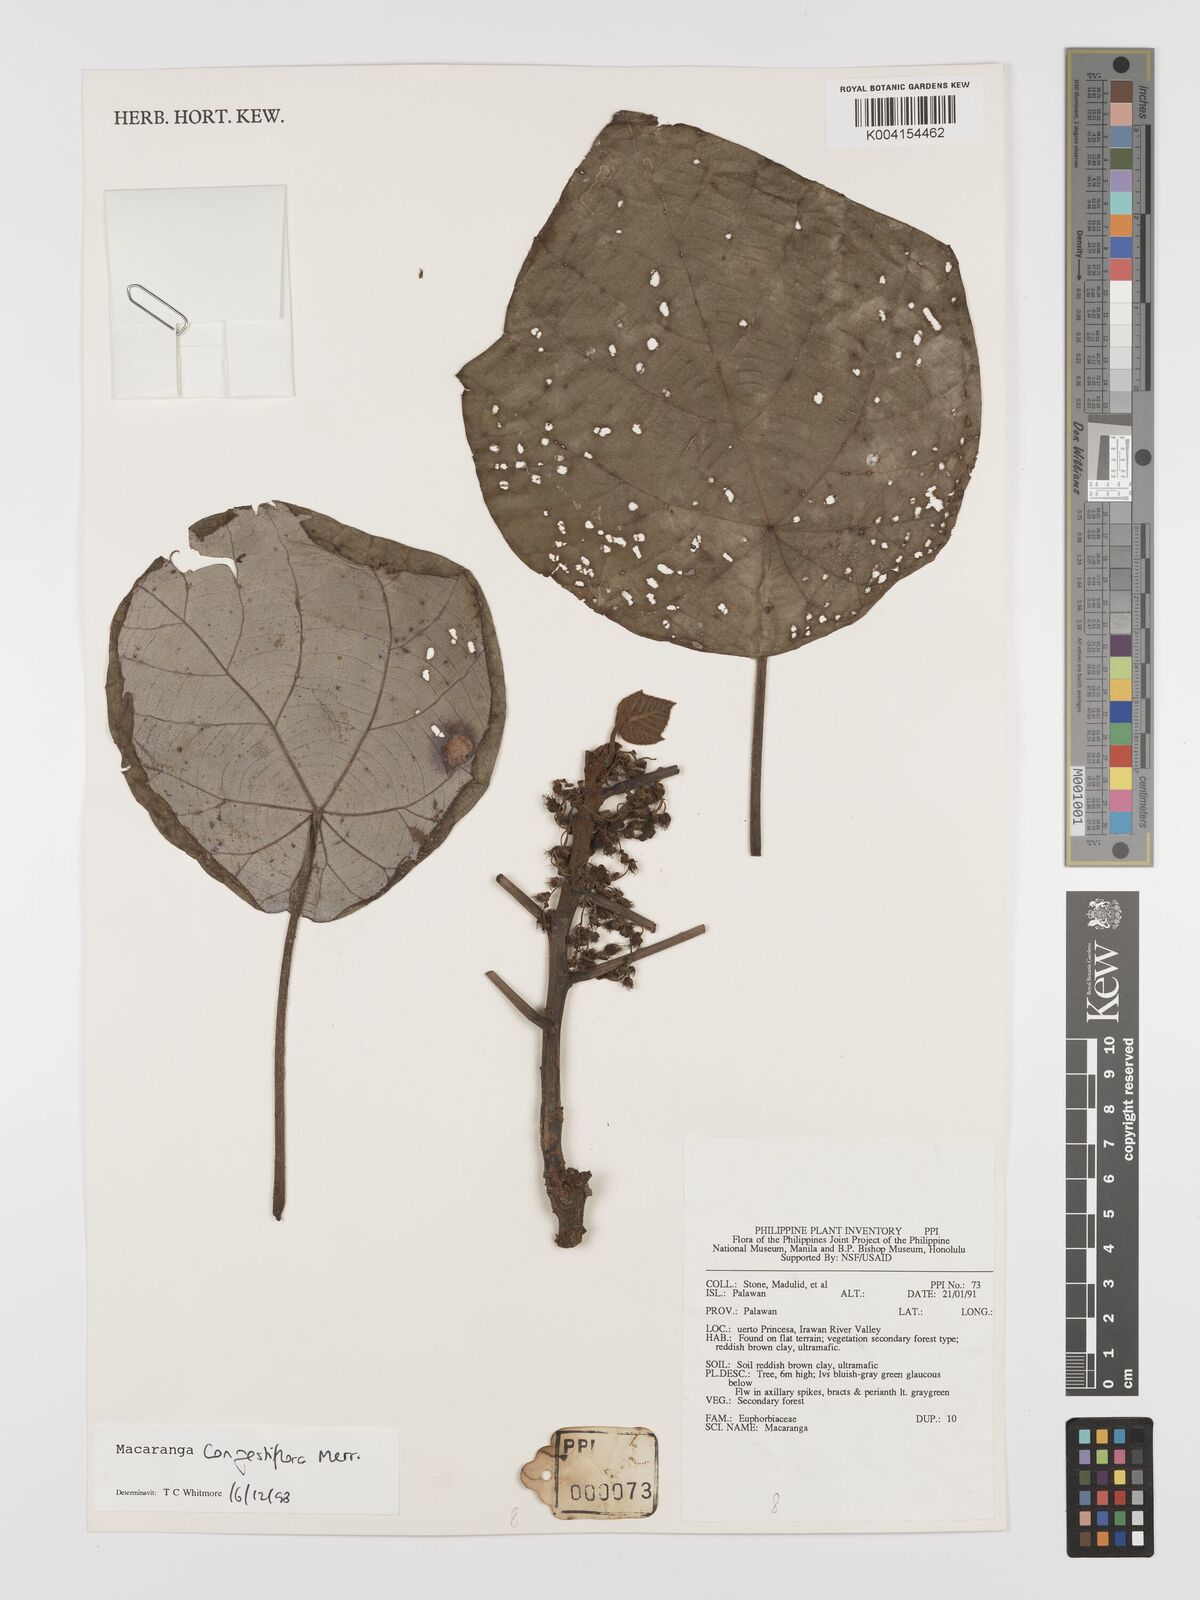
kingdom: Plantae
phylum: Tracheophyta
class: Magnoliopsida
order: Malpighiales
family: Euphorbiaceae
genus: Macaranga
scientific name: Macaranga congestiflora
